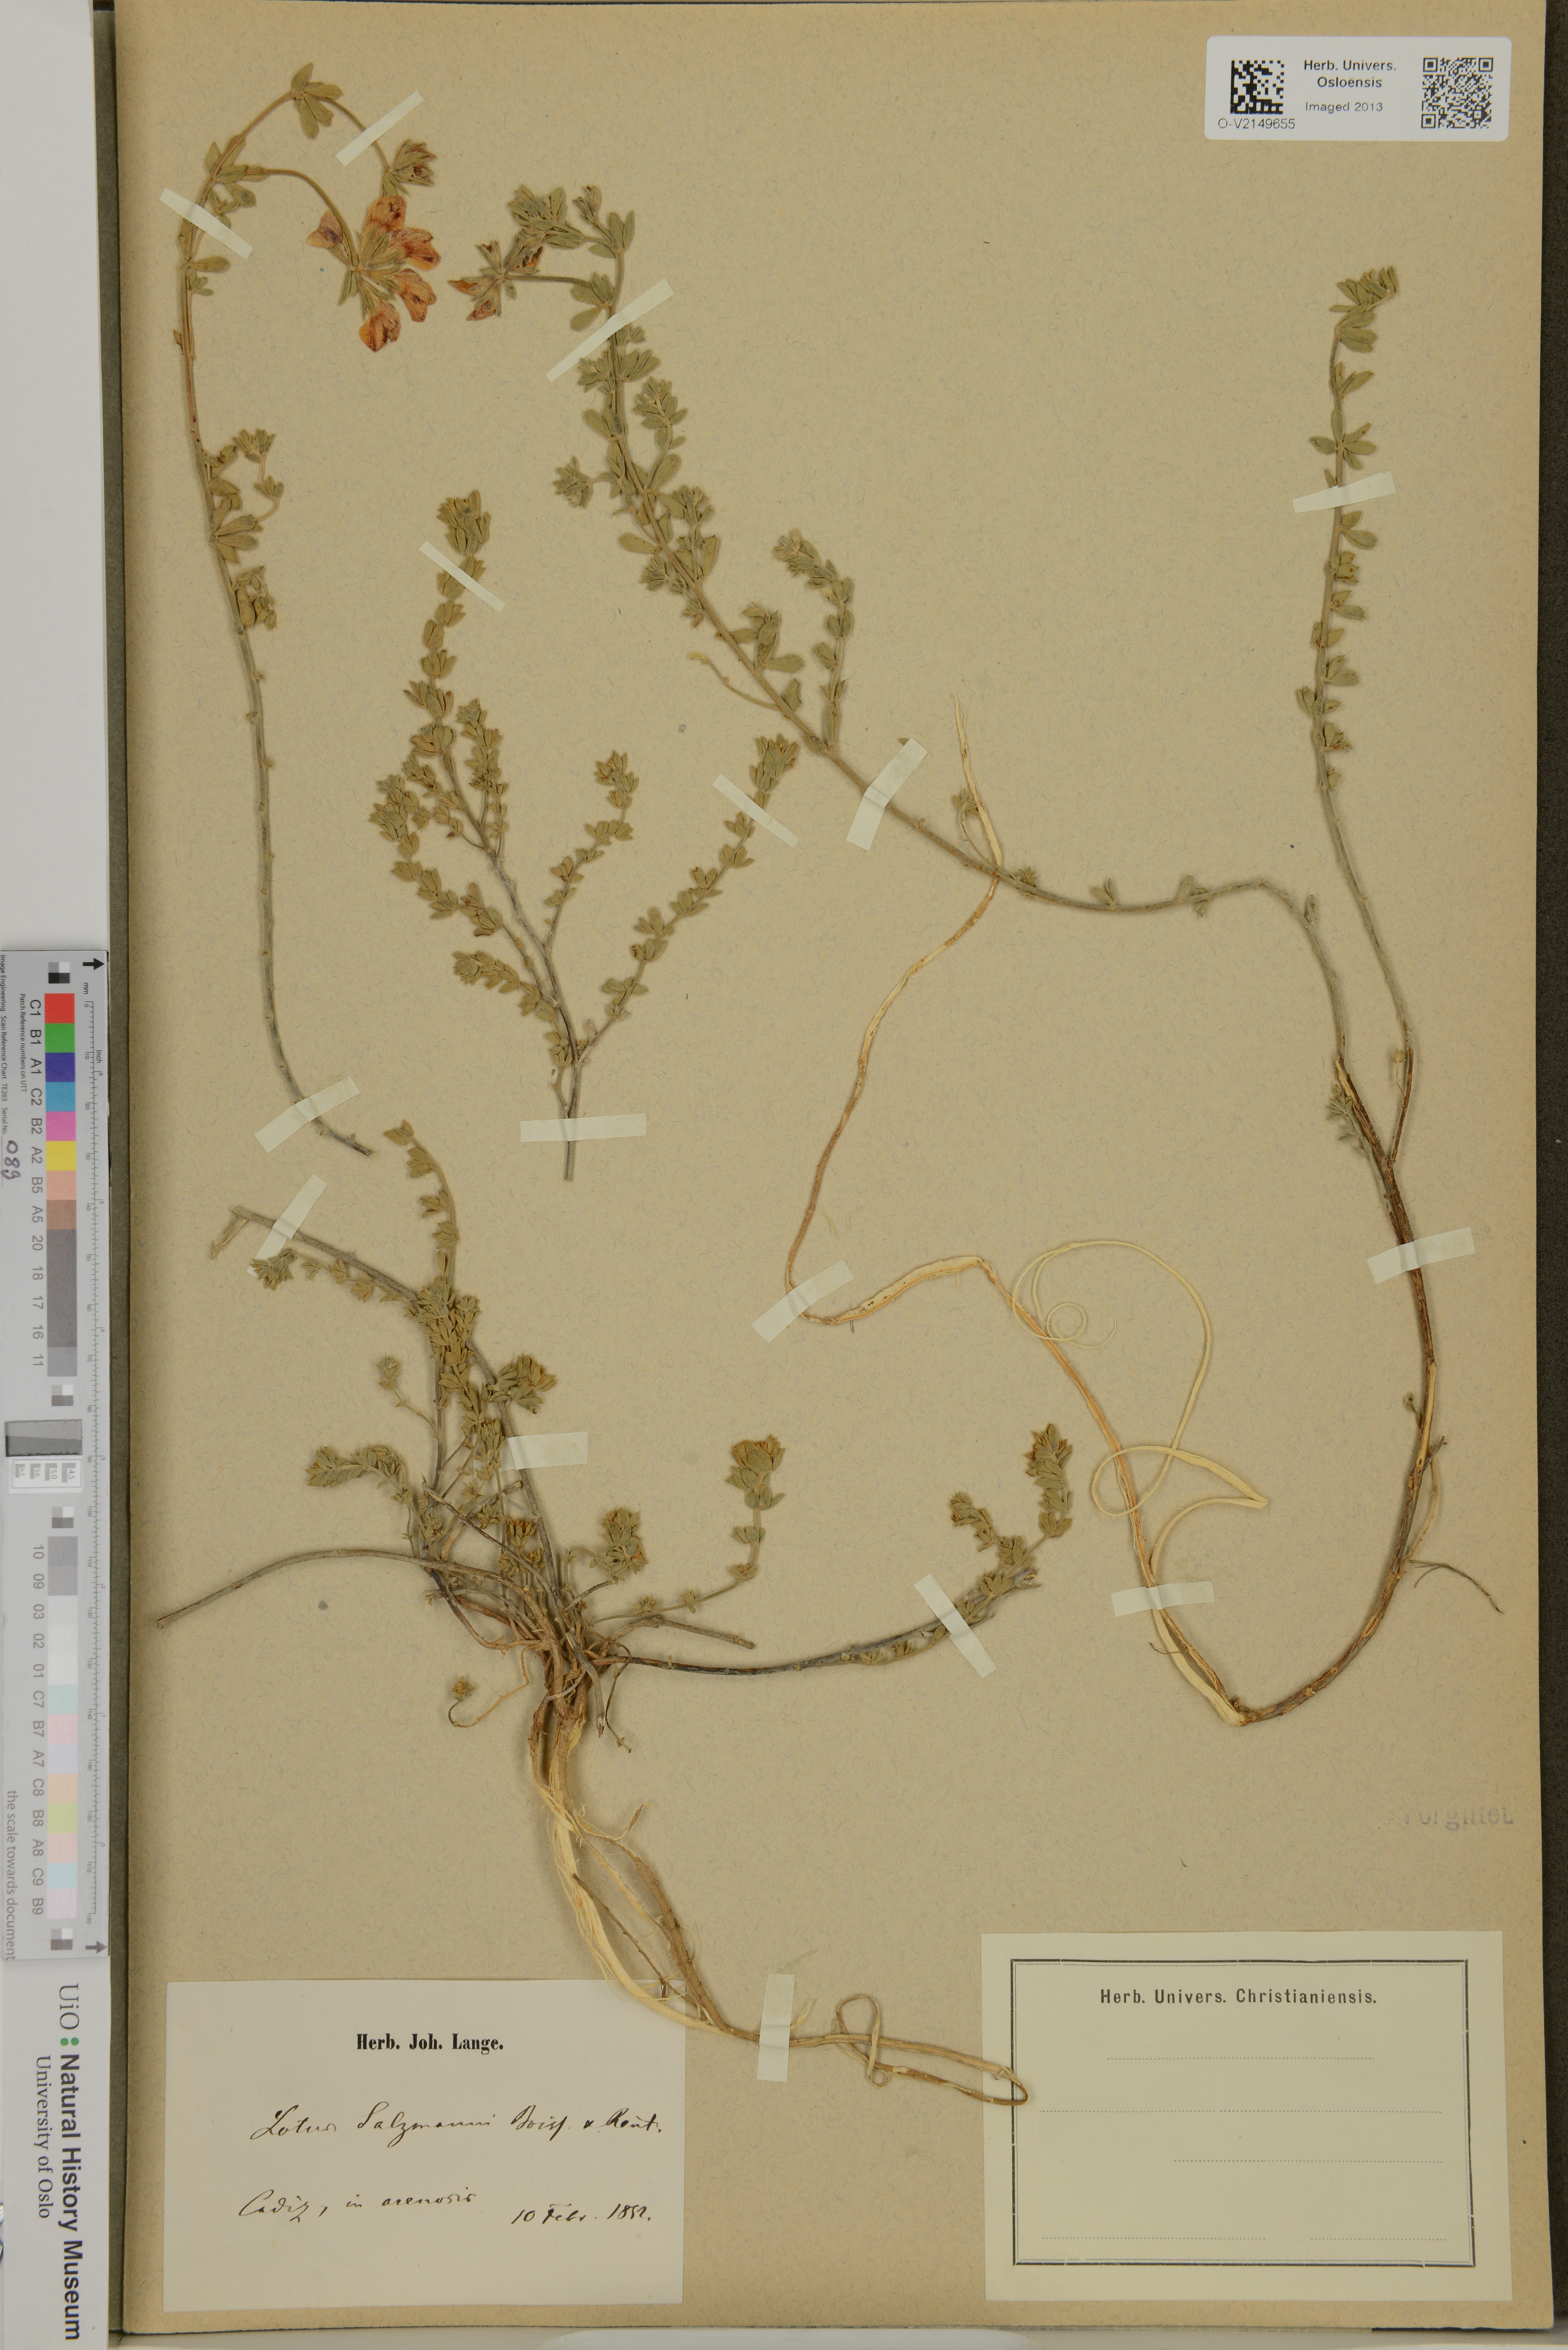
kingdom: Plantae
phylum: Tracheophyta
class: Magnoliopsida
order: Fabales
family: Fabaceae
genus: Lotus
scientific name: Lotus creticus
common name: Cretan bird's-foot trefoil
